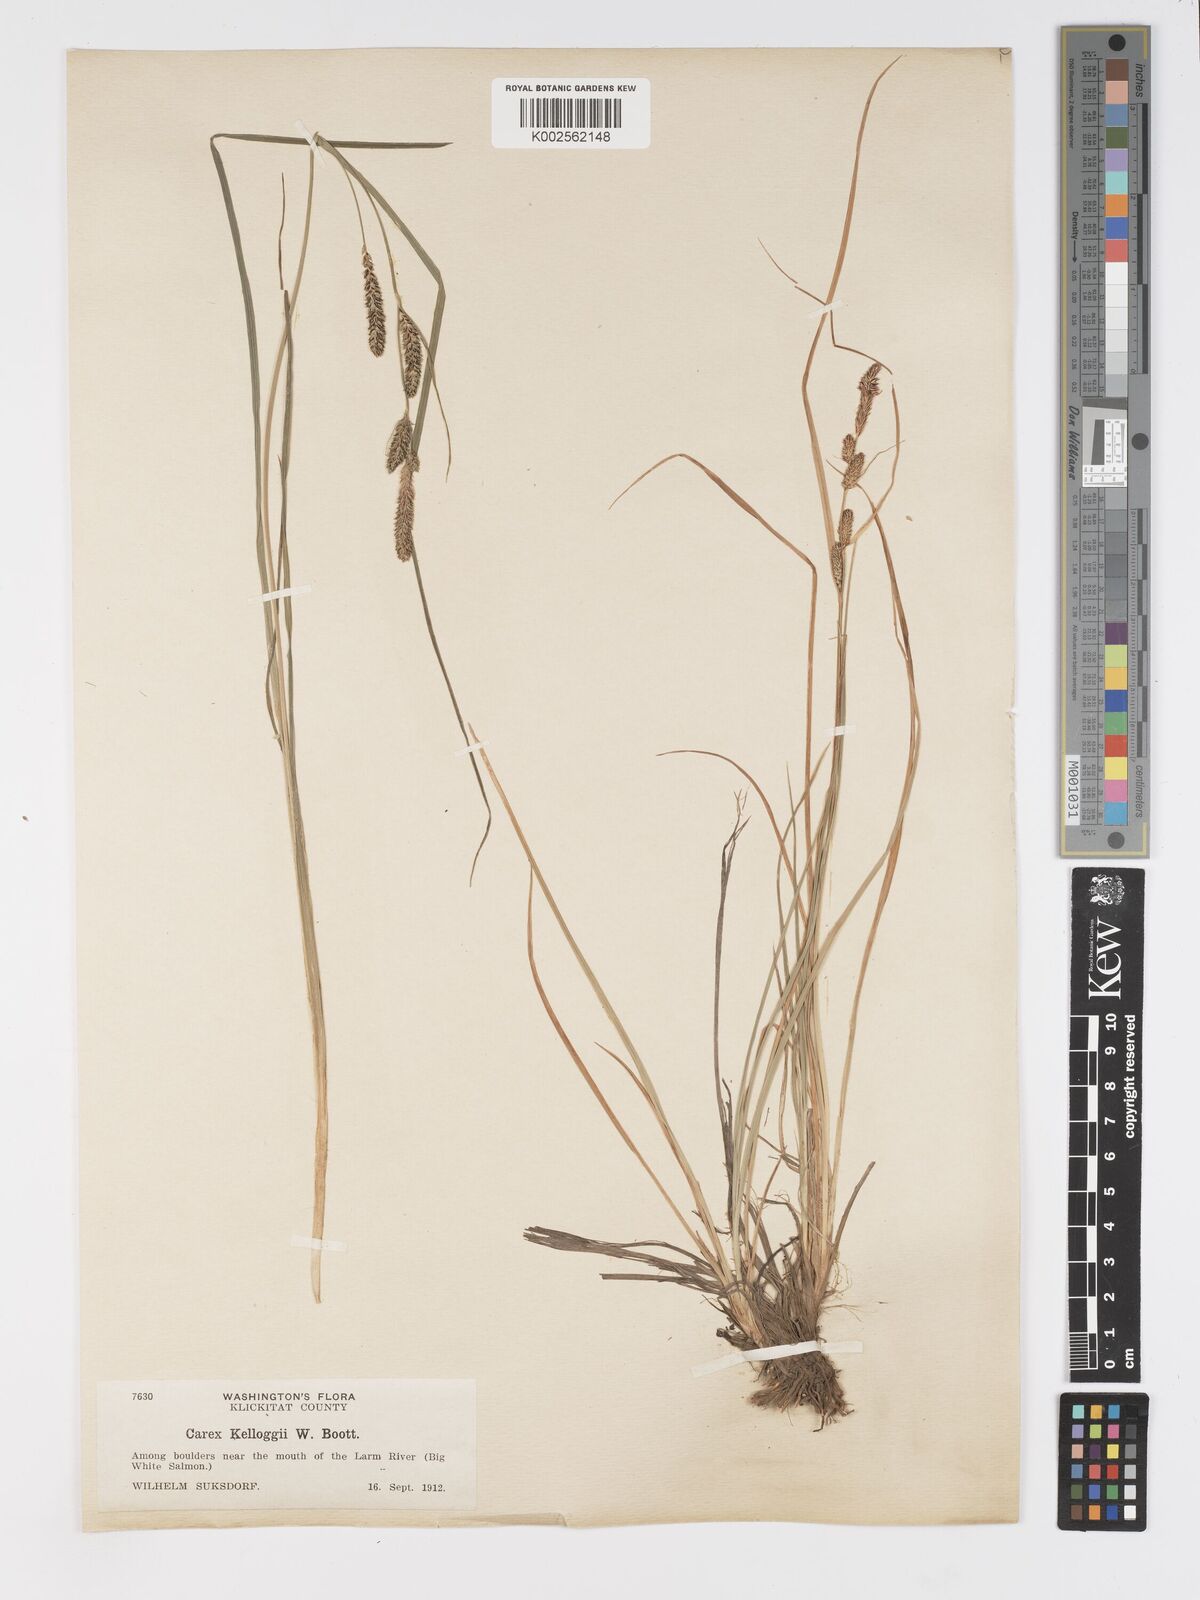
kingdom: Plantae
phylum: Tracheophyta
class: Liliopsida
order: Poales
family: Cyperaceae
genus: Carex
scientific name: Carex kelloggii
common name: Kellogg's sedge
